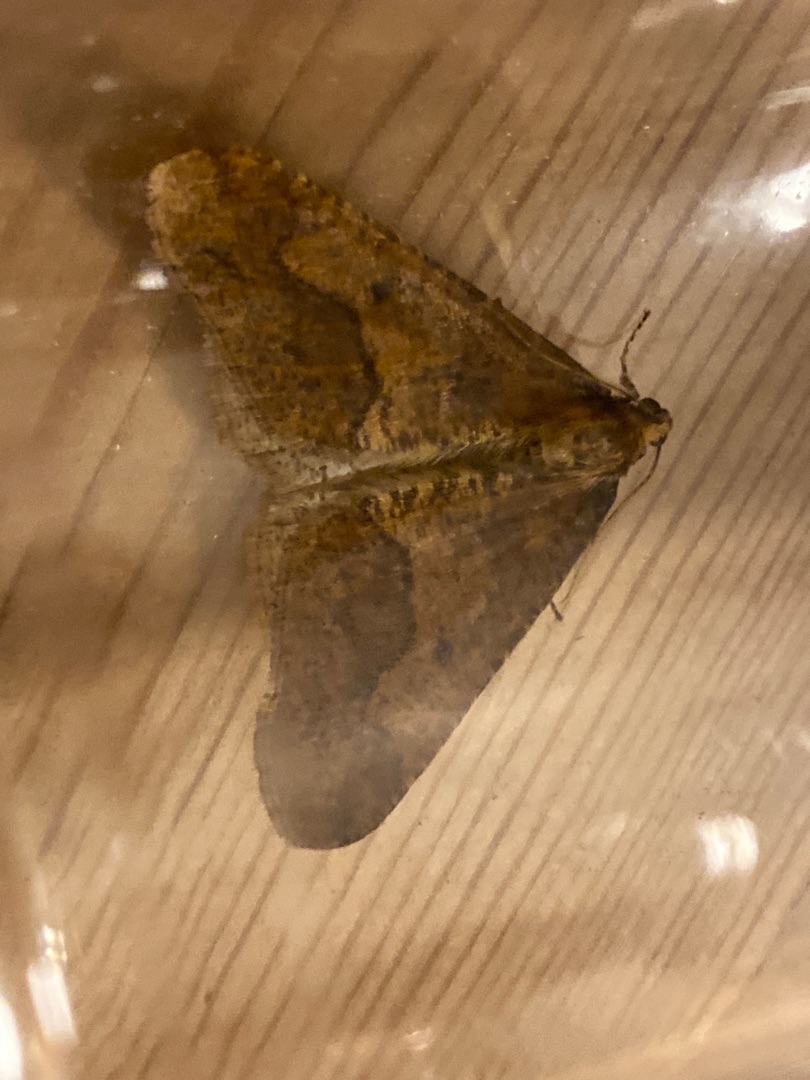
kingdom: Animalia
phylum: Arthropoda
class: Insecta
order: Lepidoptera
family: Geometridae
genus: Erannis
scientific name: Erannis defoliaria
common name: Stor frostmåler
